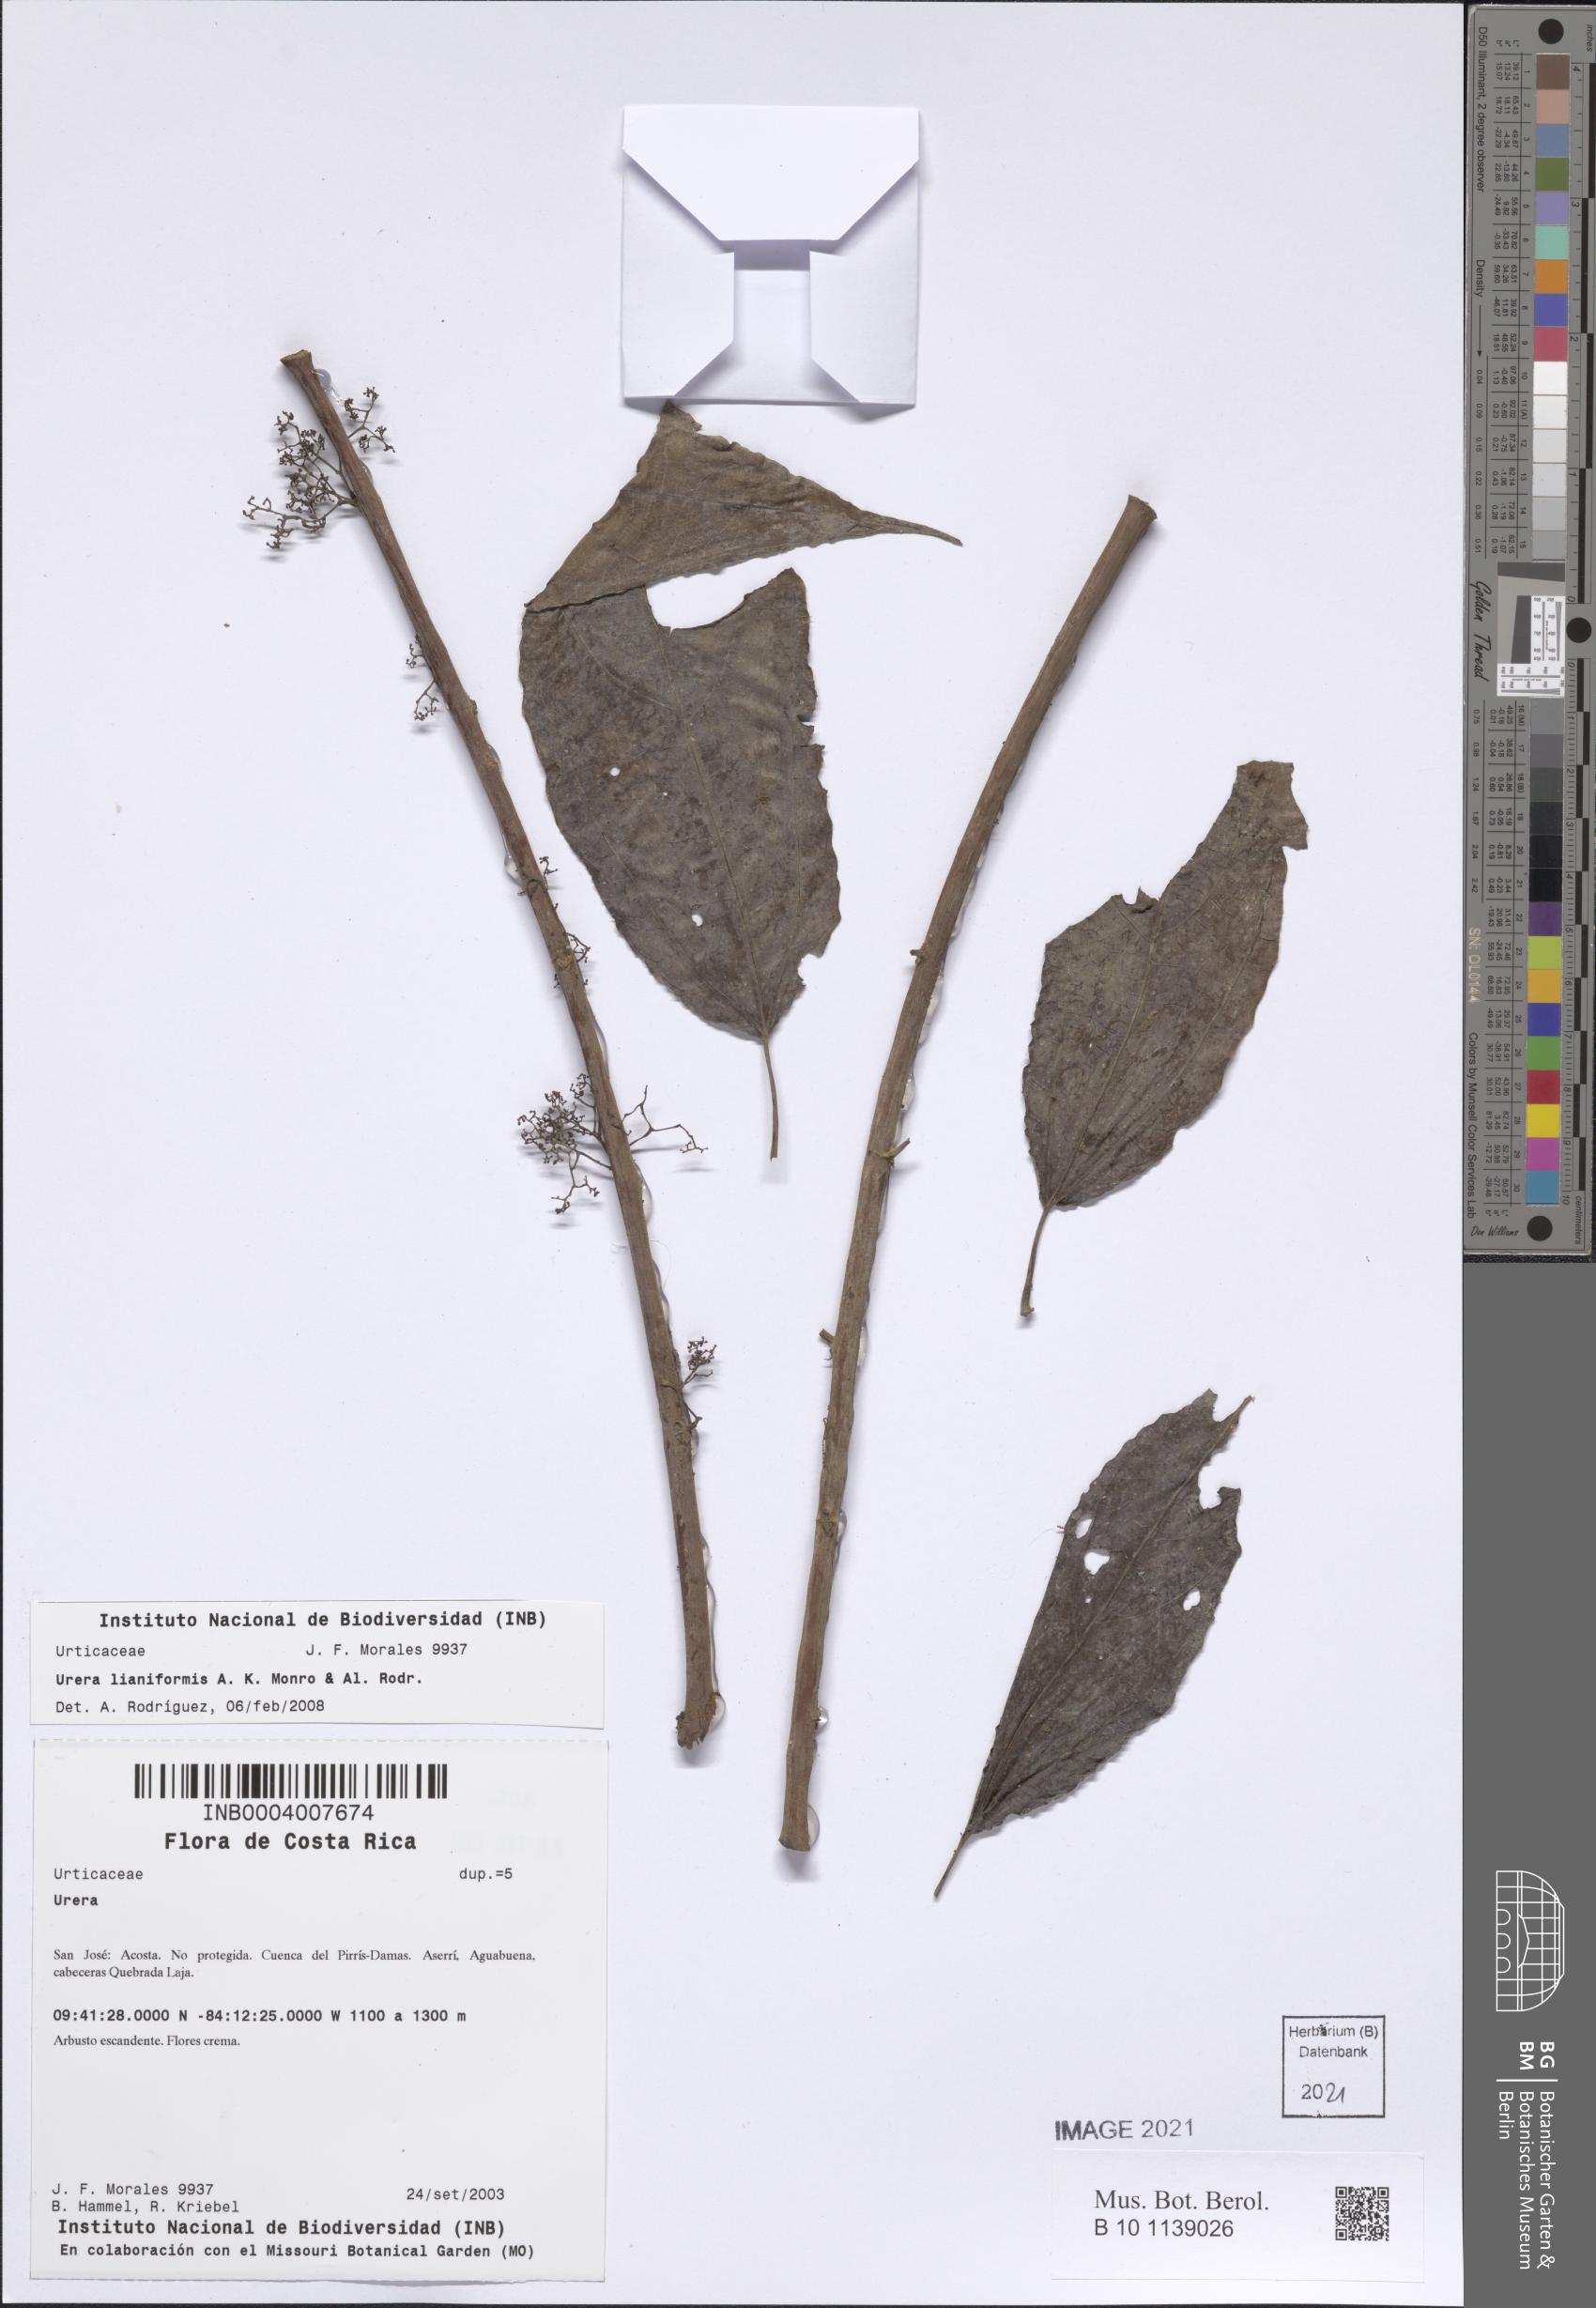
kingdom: Plantae
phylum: Tracheophyta
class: Magnoliopsida
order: Rosales
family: Urticaceae
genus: Urera
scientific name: Urera lianoides
